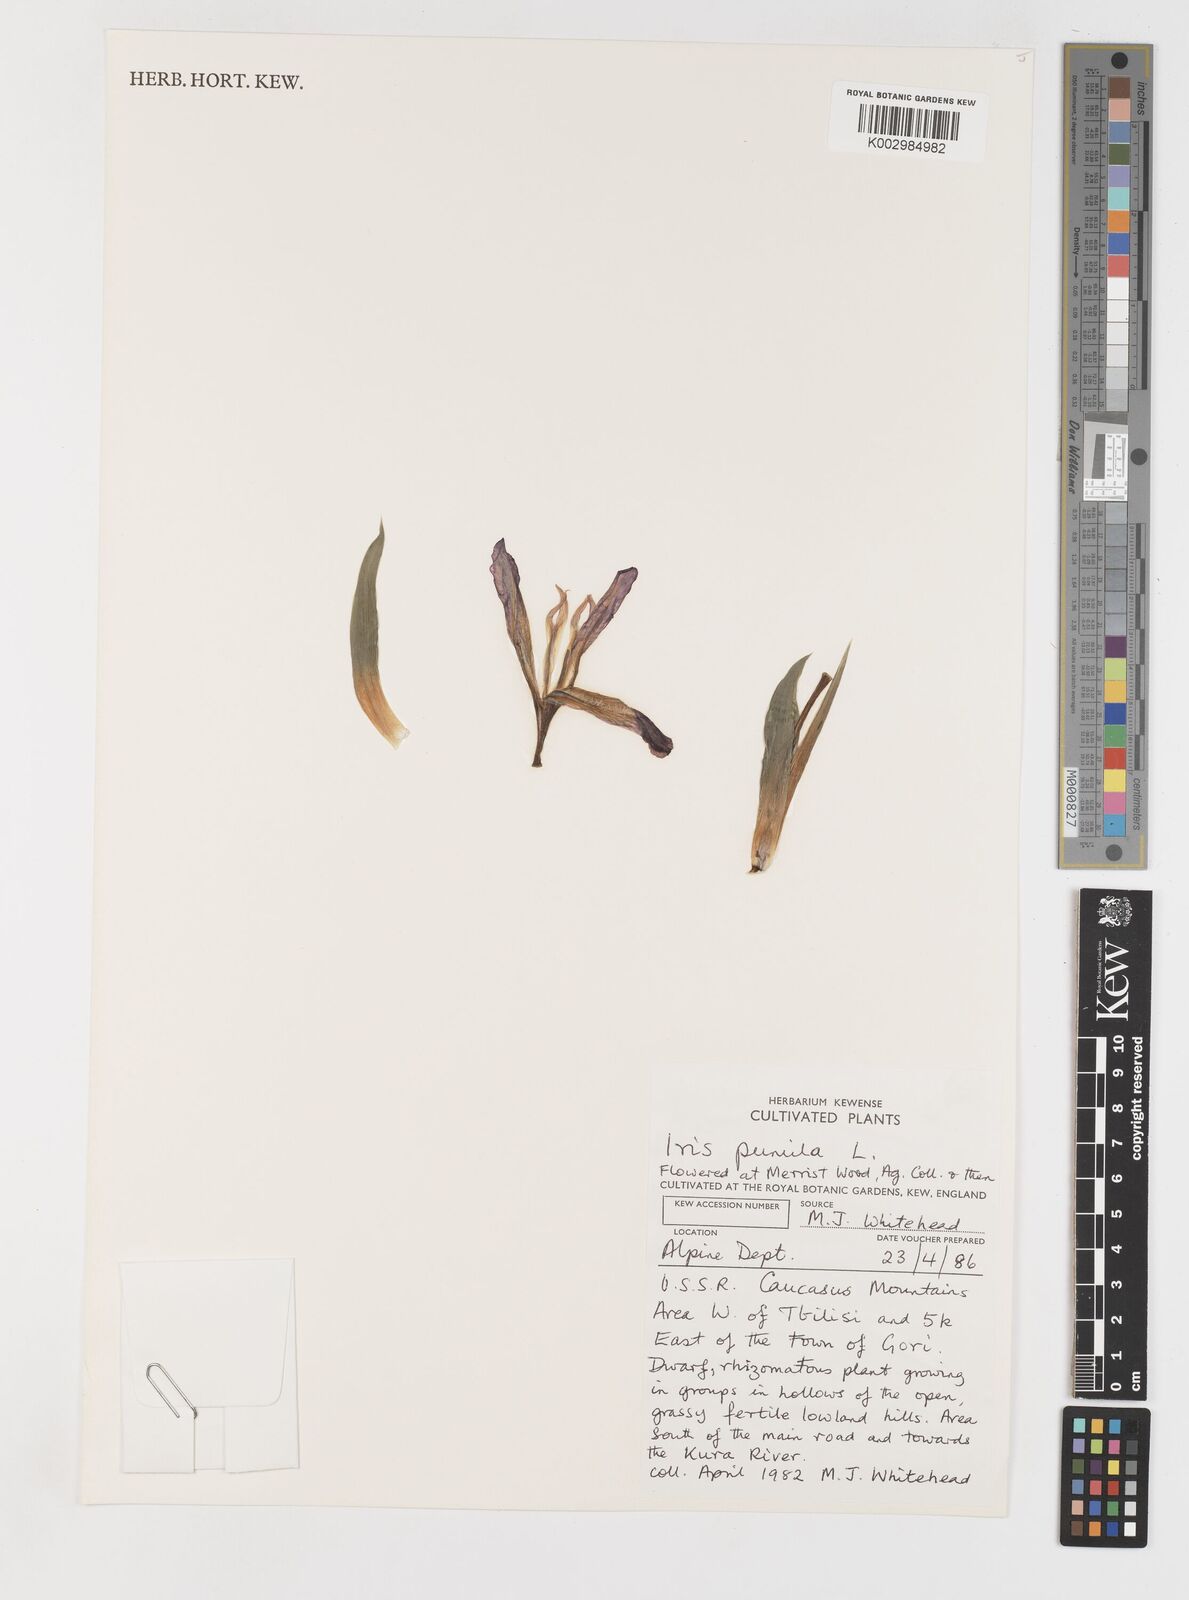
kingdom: Plantae
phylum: Tracheophyta
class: Liliopsida
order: Asparagales
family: Iridaceae
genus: Iris
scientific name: Iris pumila
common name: Dwarf iris
